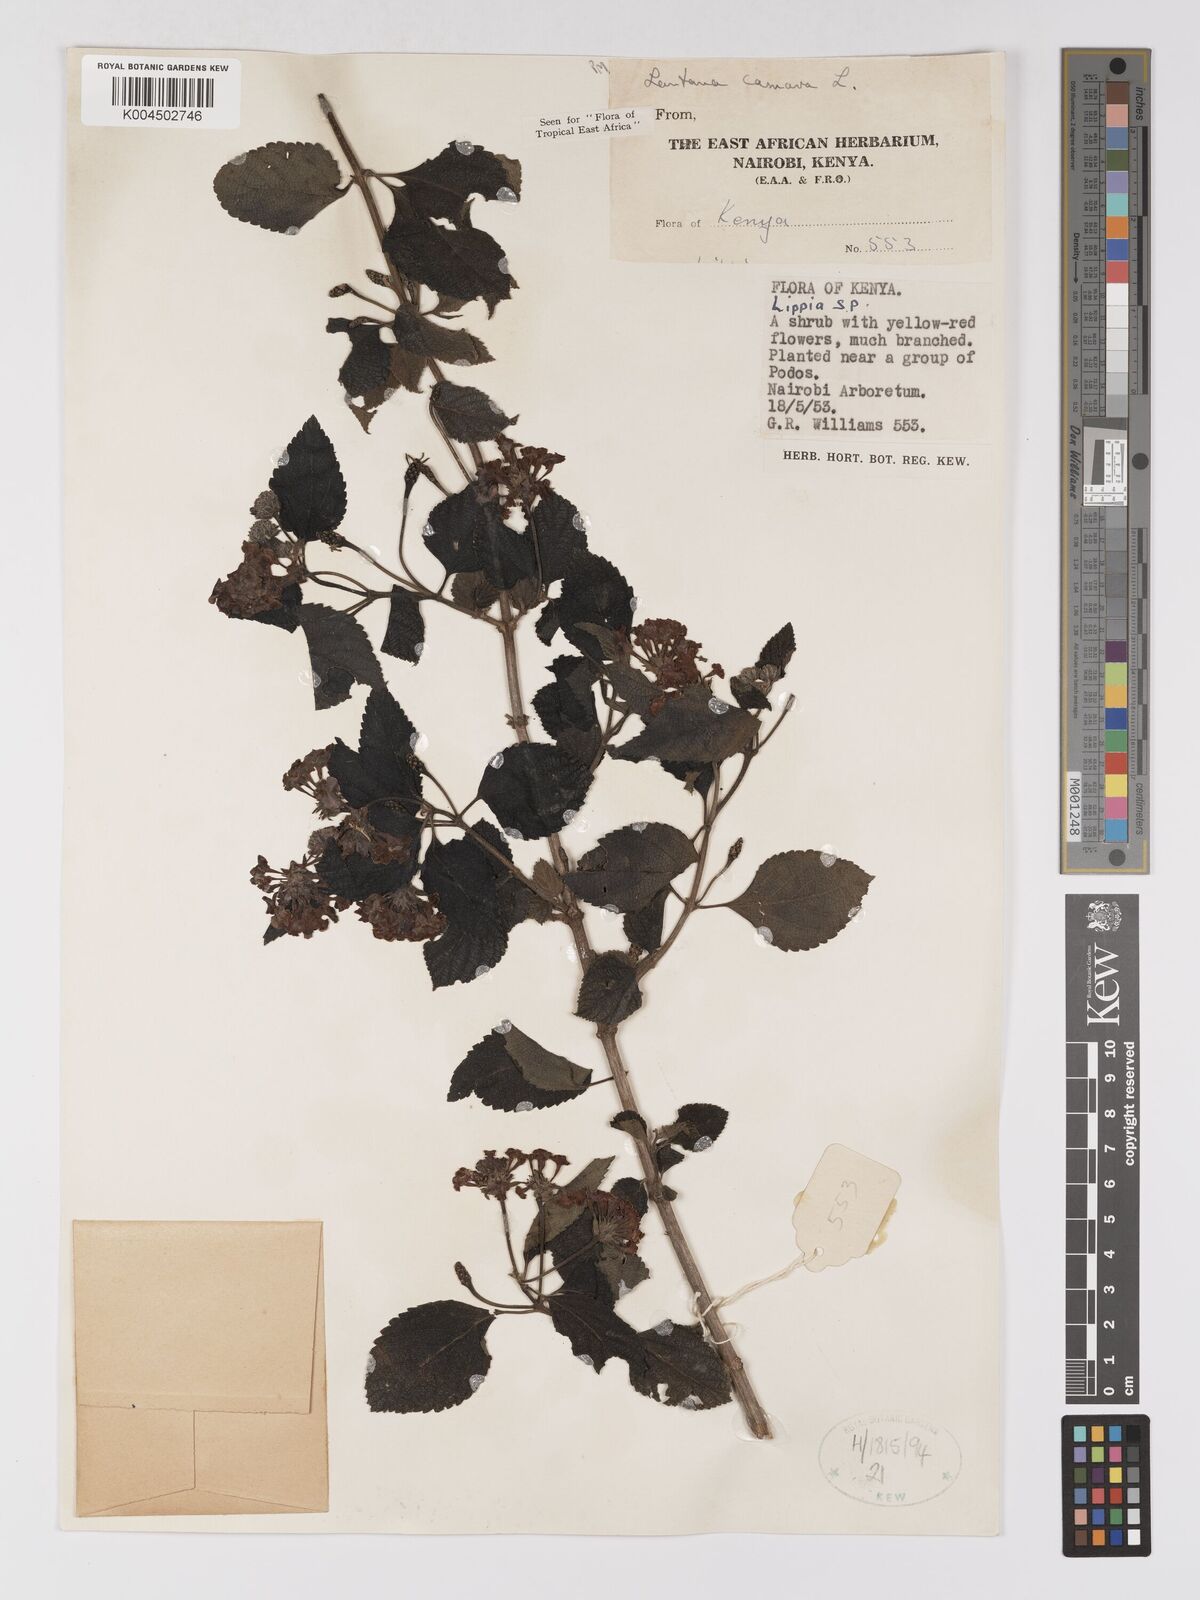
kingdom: Plantae
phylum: Tracheophyta
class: Magnoliopsida
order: Lamiales
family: Verbenaceae
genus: Lantana
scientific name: Lantana camara
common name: Lantana
